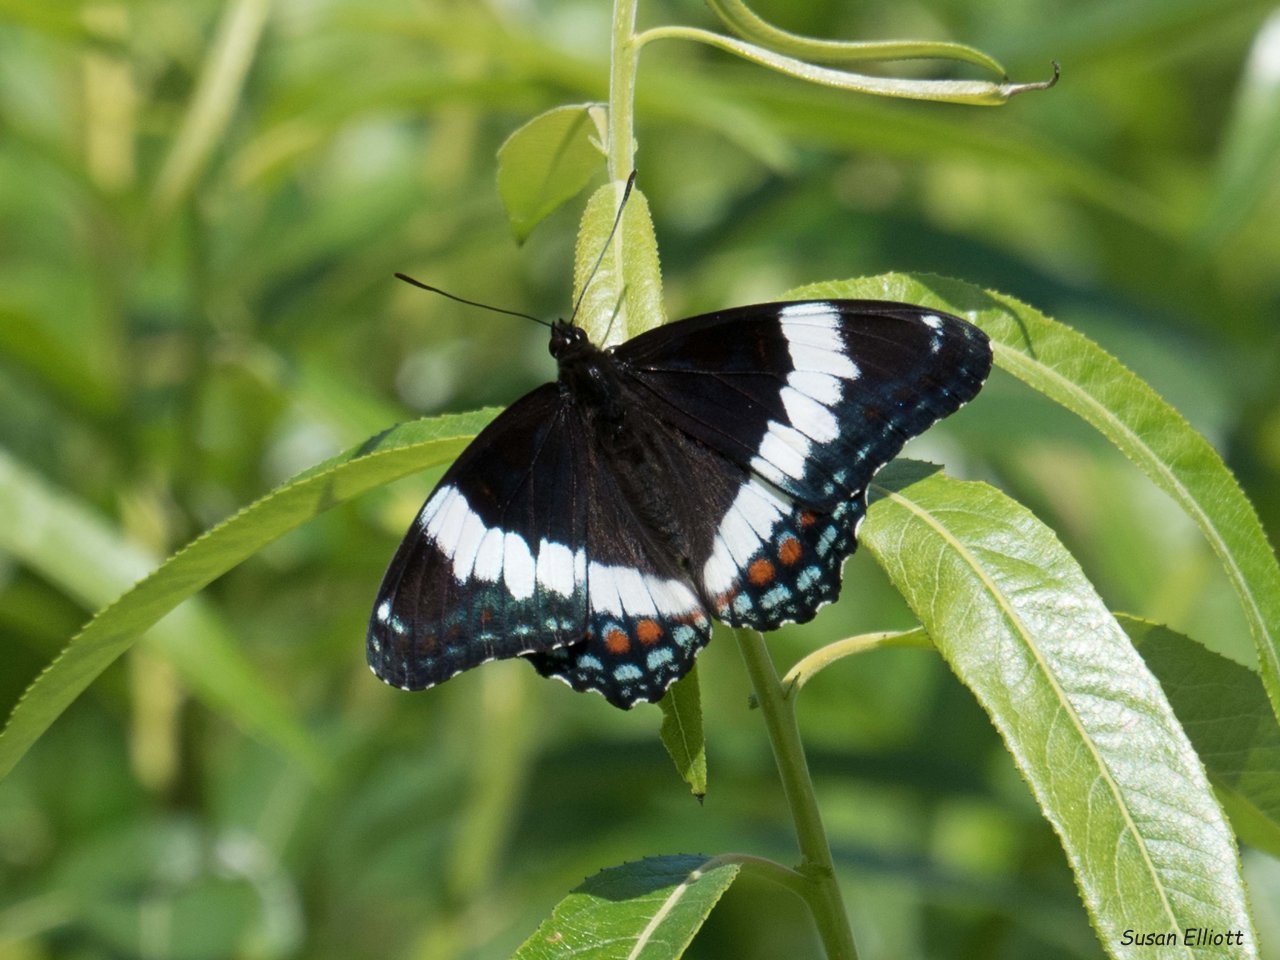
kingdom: Animalia
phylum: Arthropoda
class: Insecta
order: Lepidoptera
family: Nymphalidae
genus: Limenitis
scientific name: Limenitis arthemis
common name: Red-spotted Admiral
